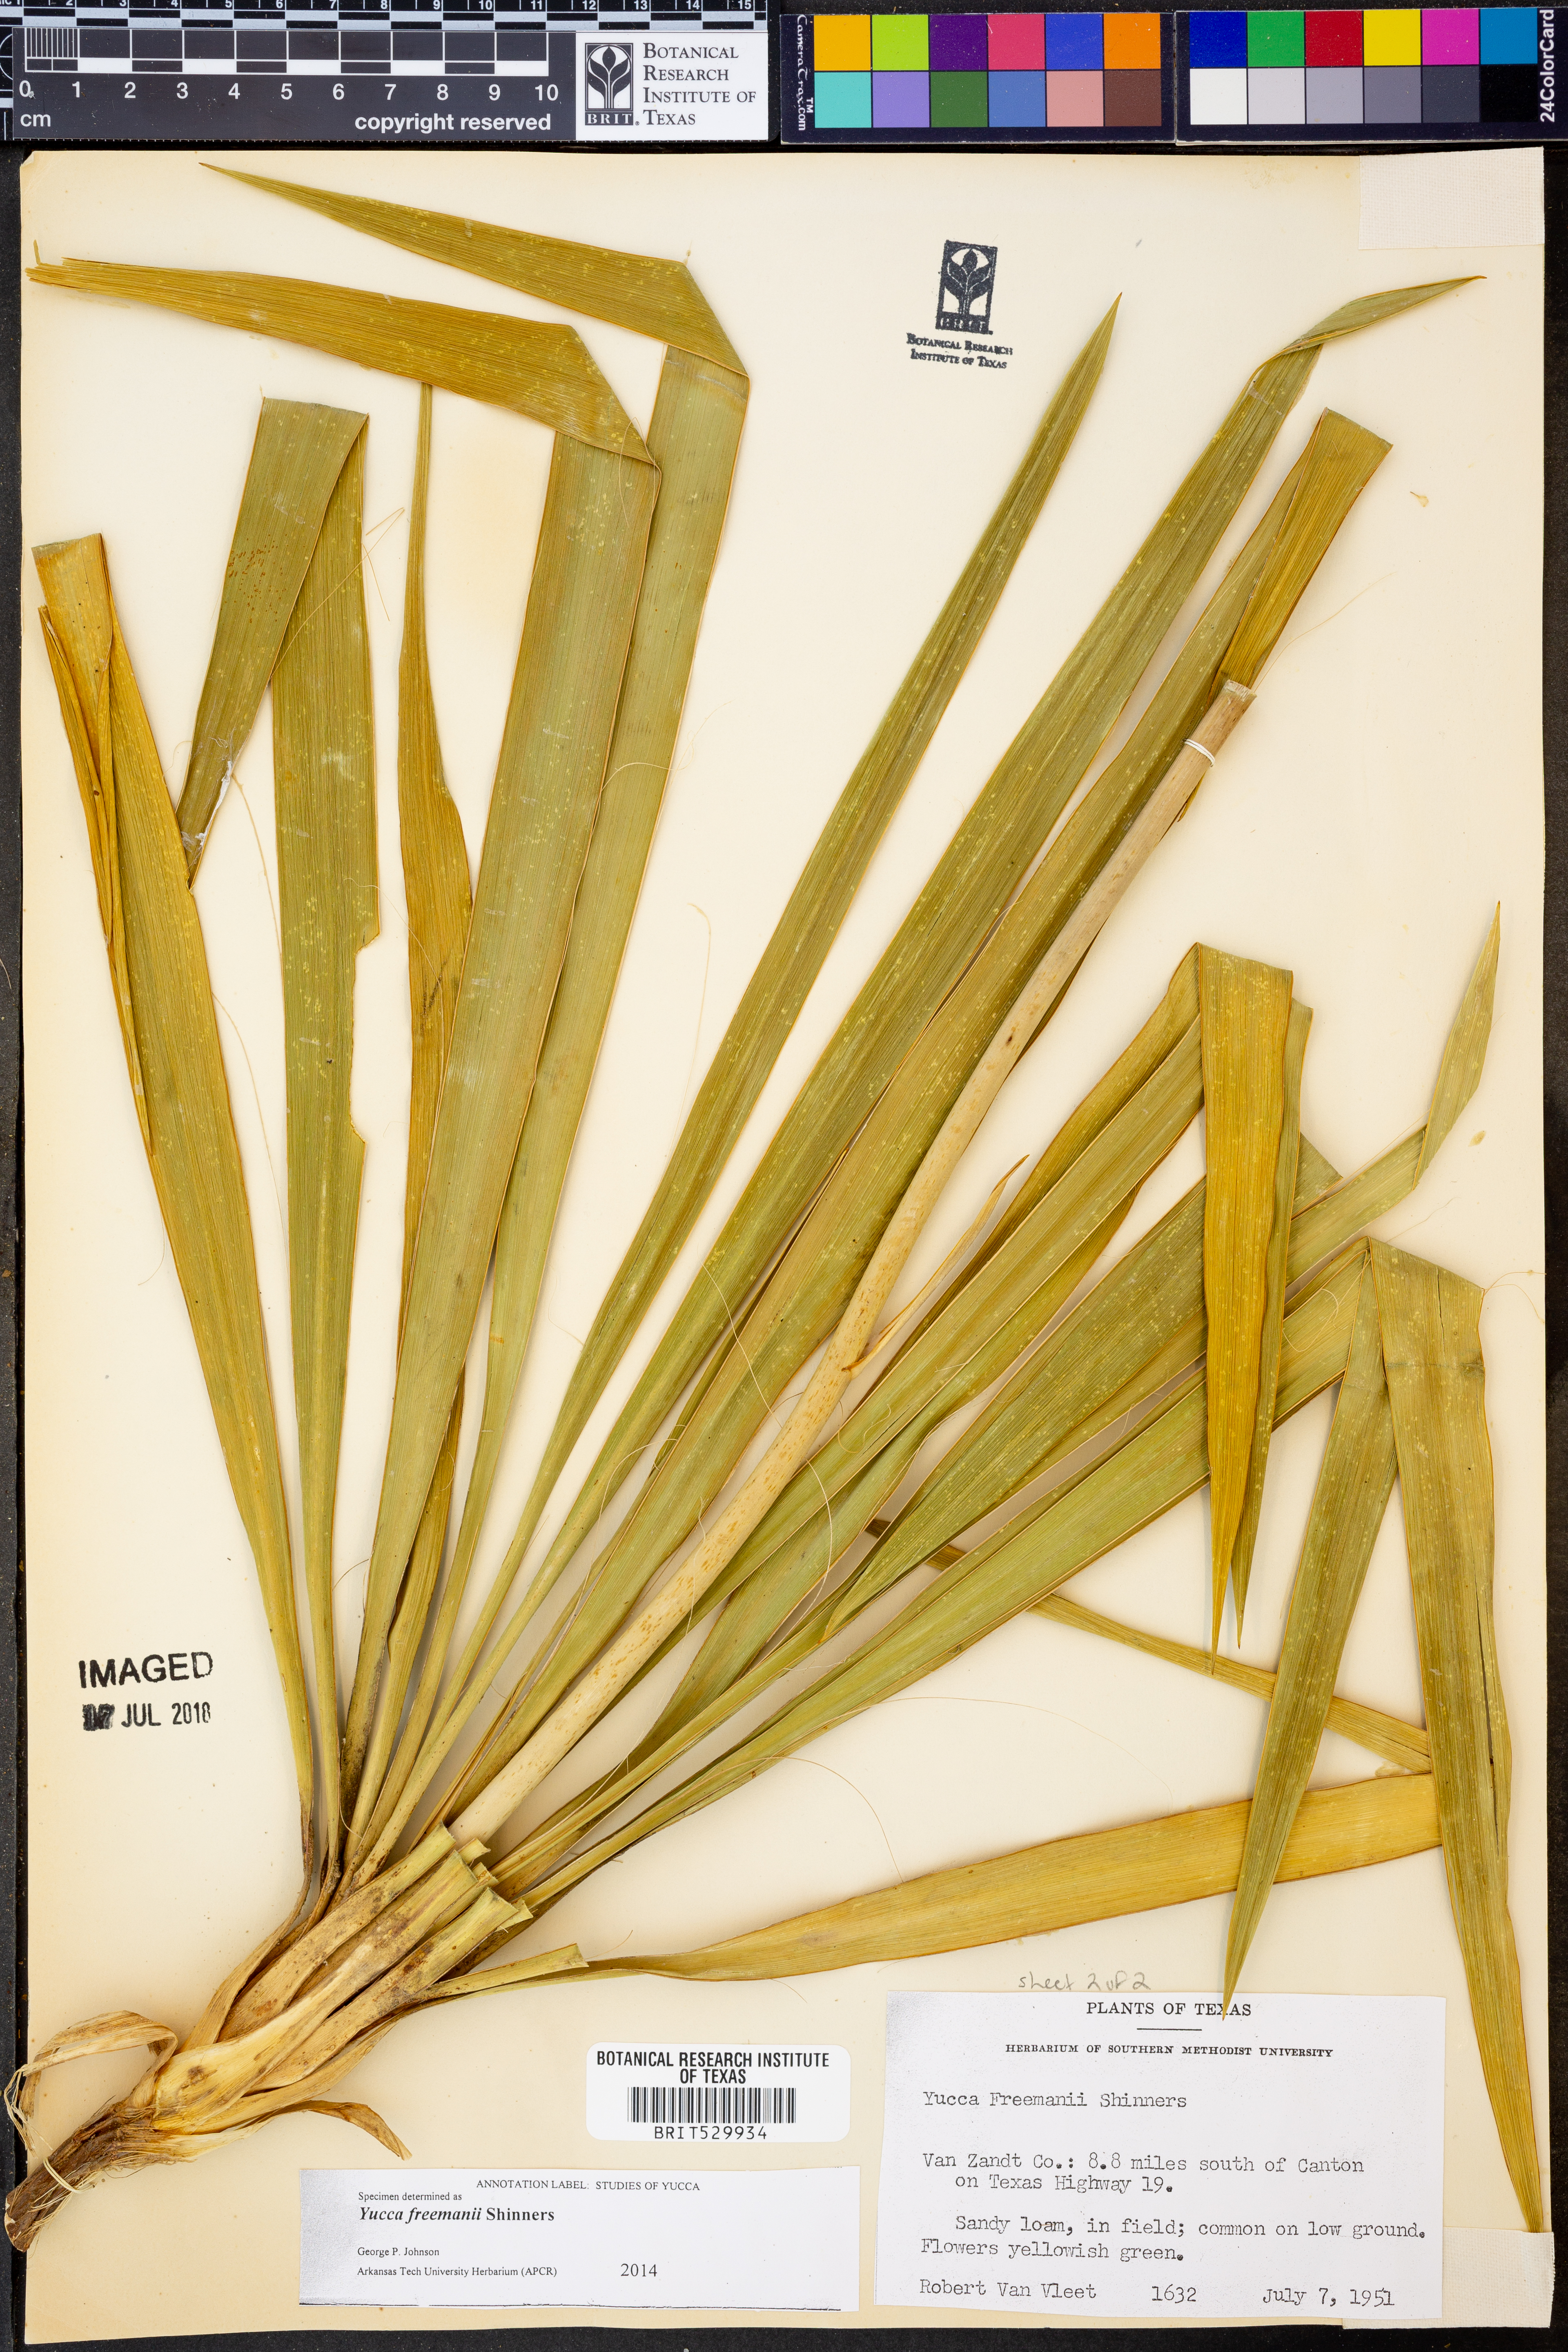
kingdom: Plantae
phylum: Tracheophyta
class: Liliopsida
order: Asparagales
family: Asparagaceae
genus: Yucca
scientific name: Yucca flaccida
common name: Adam's-needle
